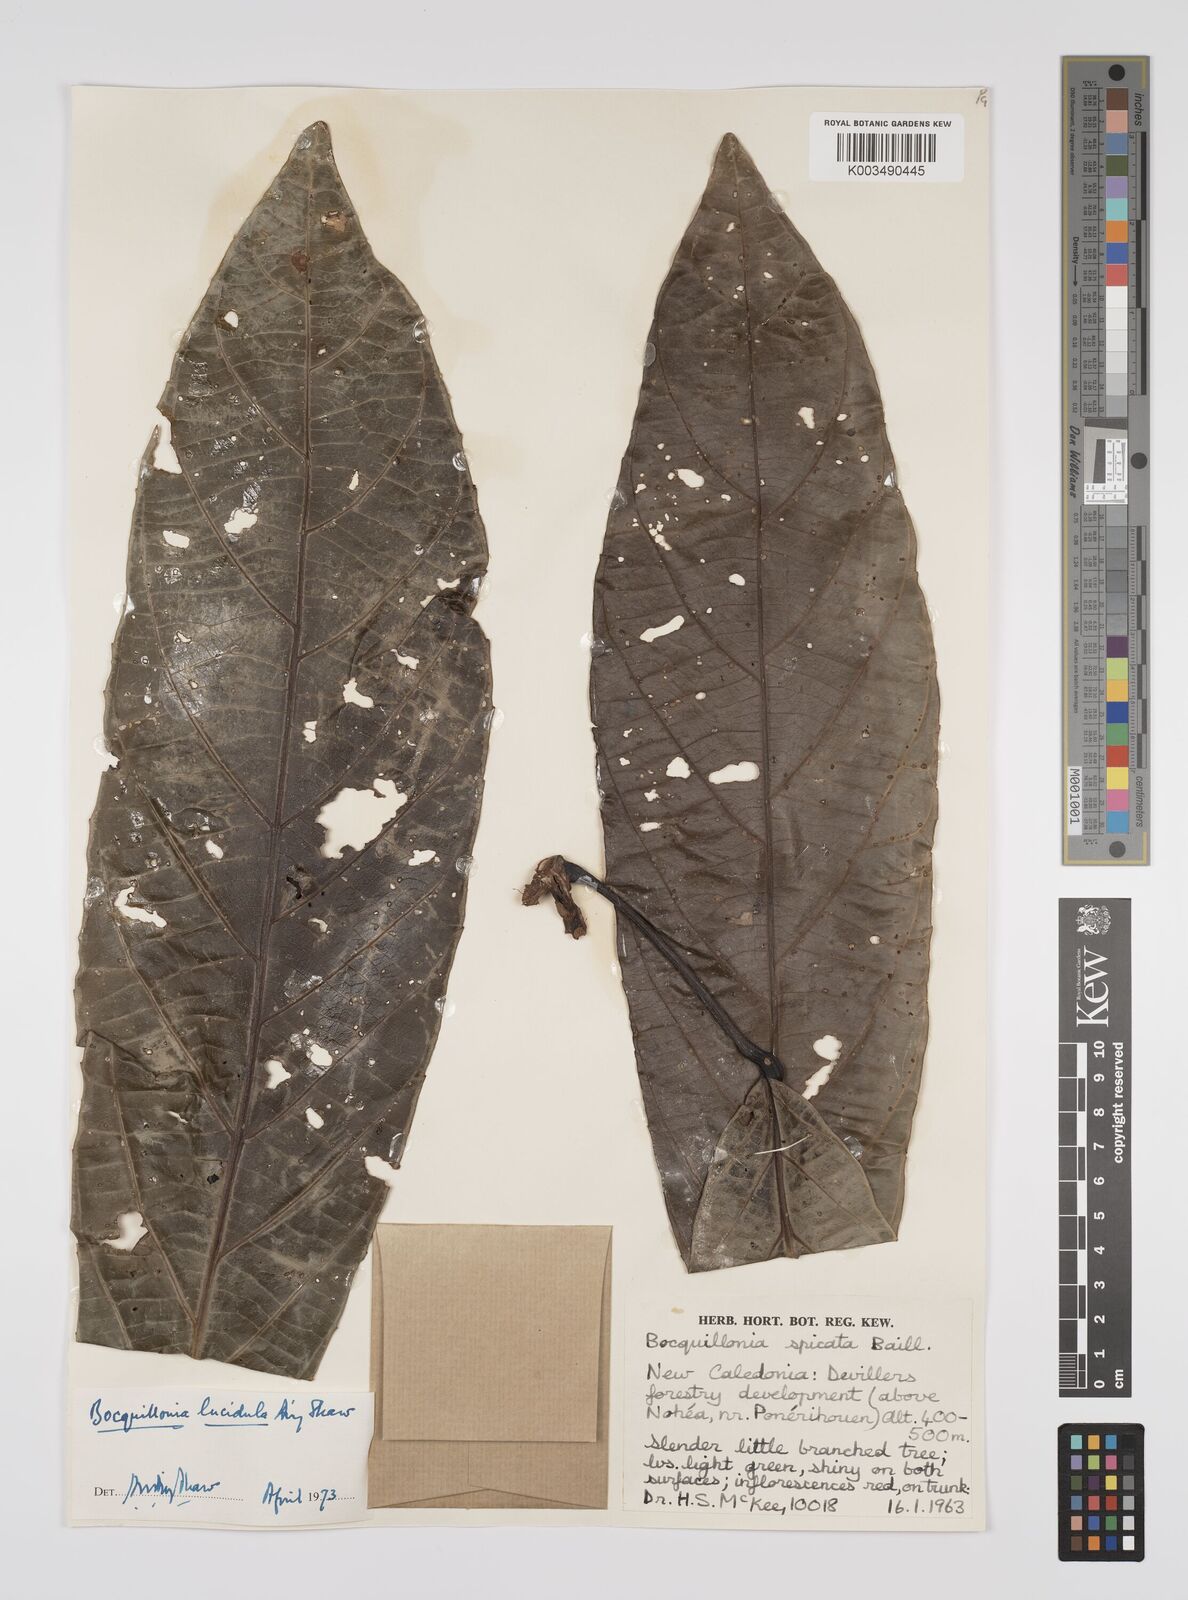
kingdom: Plantae
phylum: Tracheophyta
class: Magnoliopsida
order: Malpighiales
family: Euphorbiaceae
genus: Bocquillonia
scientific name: Bocquillonia lucidula
